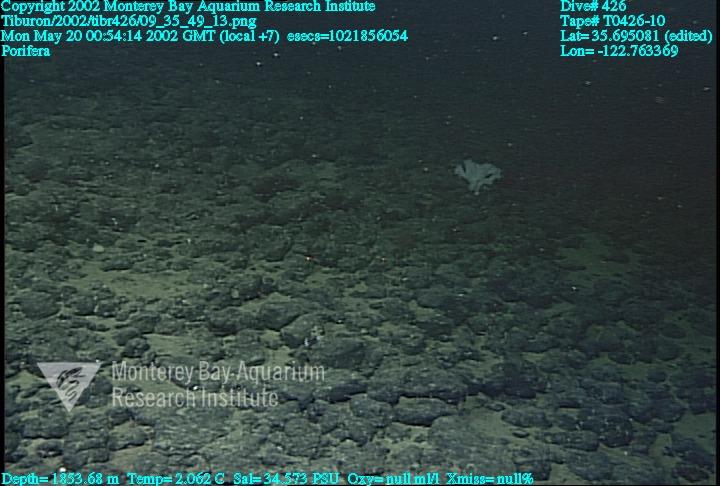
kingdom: Animalia
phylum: Porifera
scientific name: Porifera
